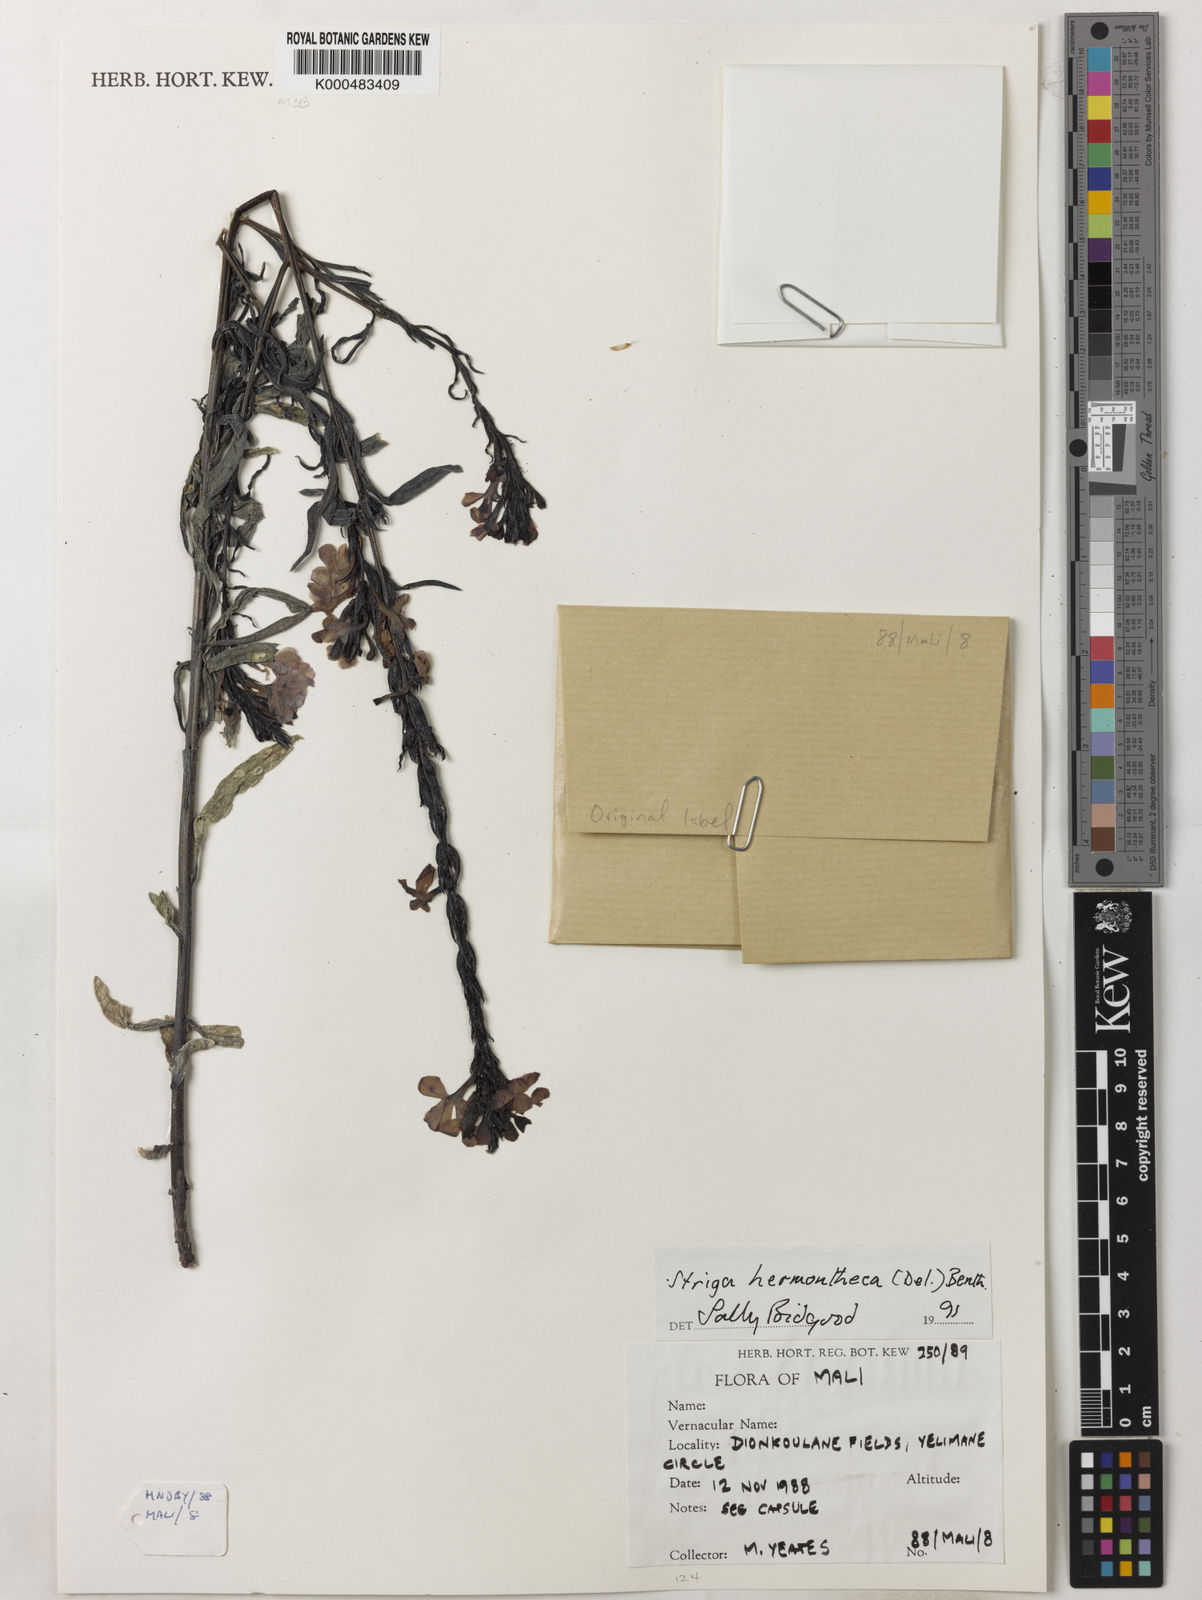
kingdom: Plantae
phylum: Tracheophyta
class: Magnoliopsida
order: Lamiales
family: Orobanchaceae
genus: Striga
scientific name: Striga hermonthica
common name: Purple witchweed
